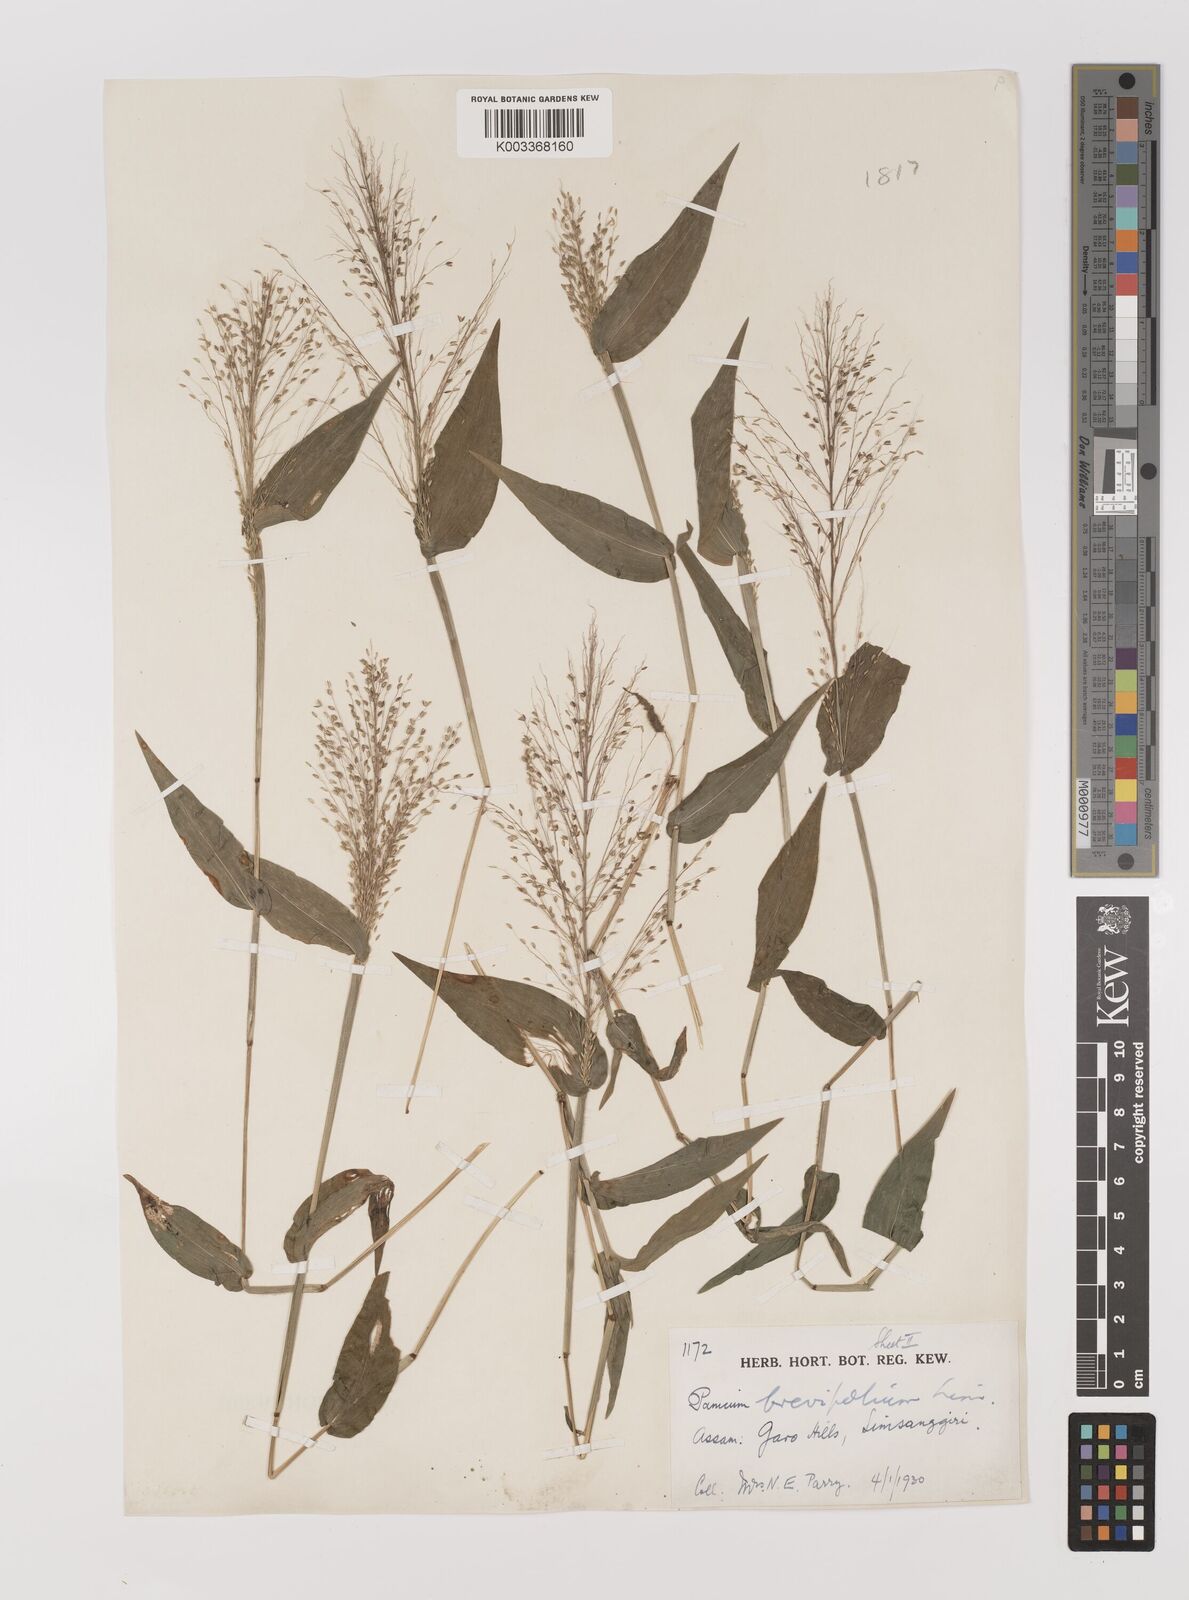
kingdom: Plantae
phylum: Tracheophyta
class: Liliopsida
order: Poales
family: Poaceae
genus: Panicum
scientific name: Panicum brevifolium
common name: Shortleaf panic grass
